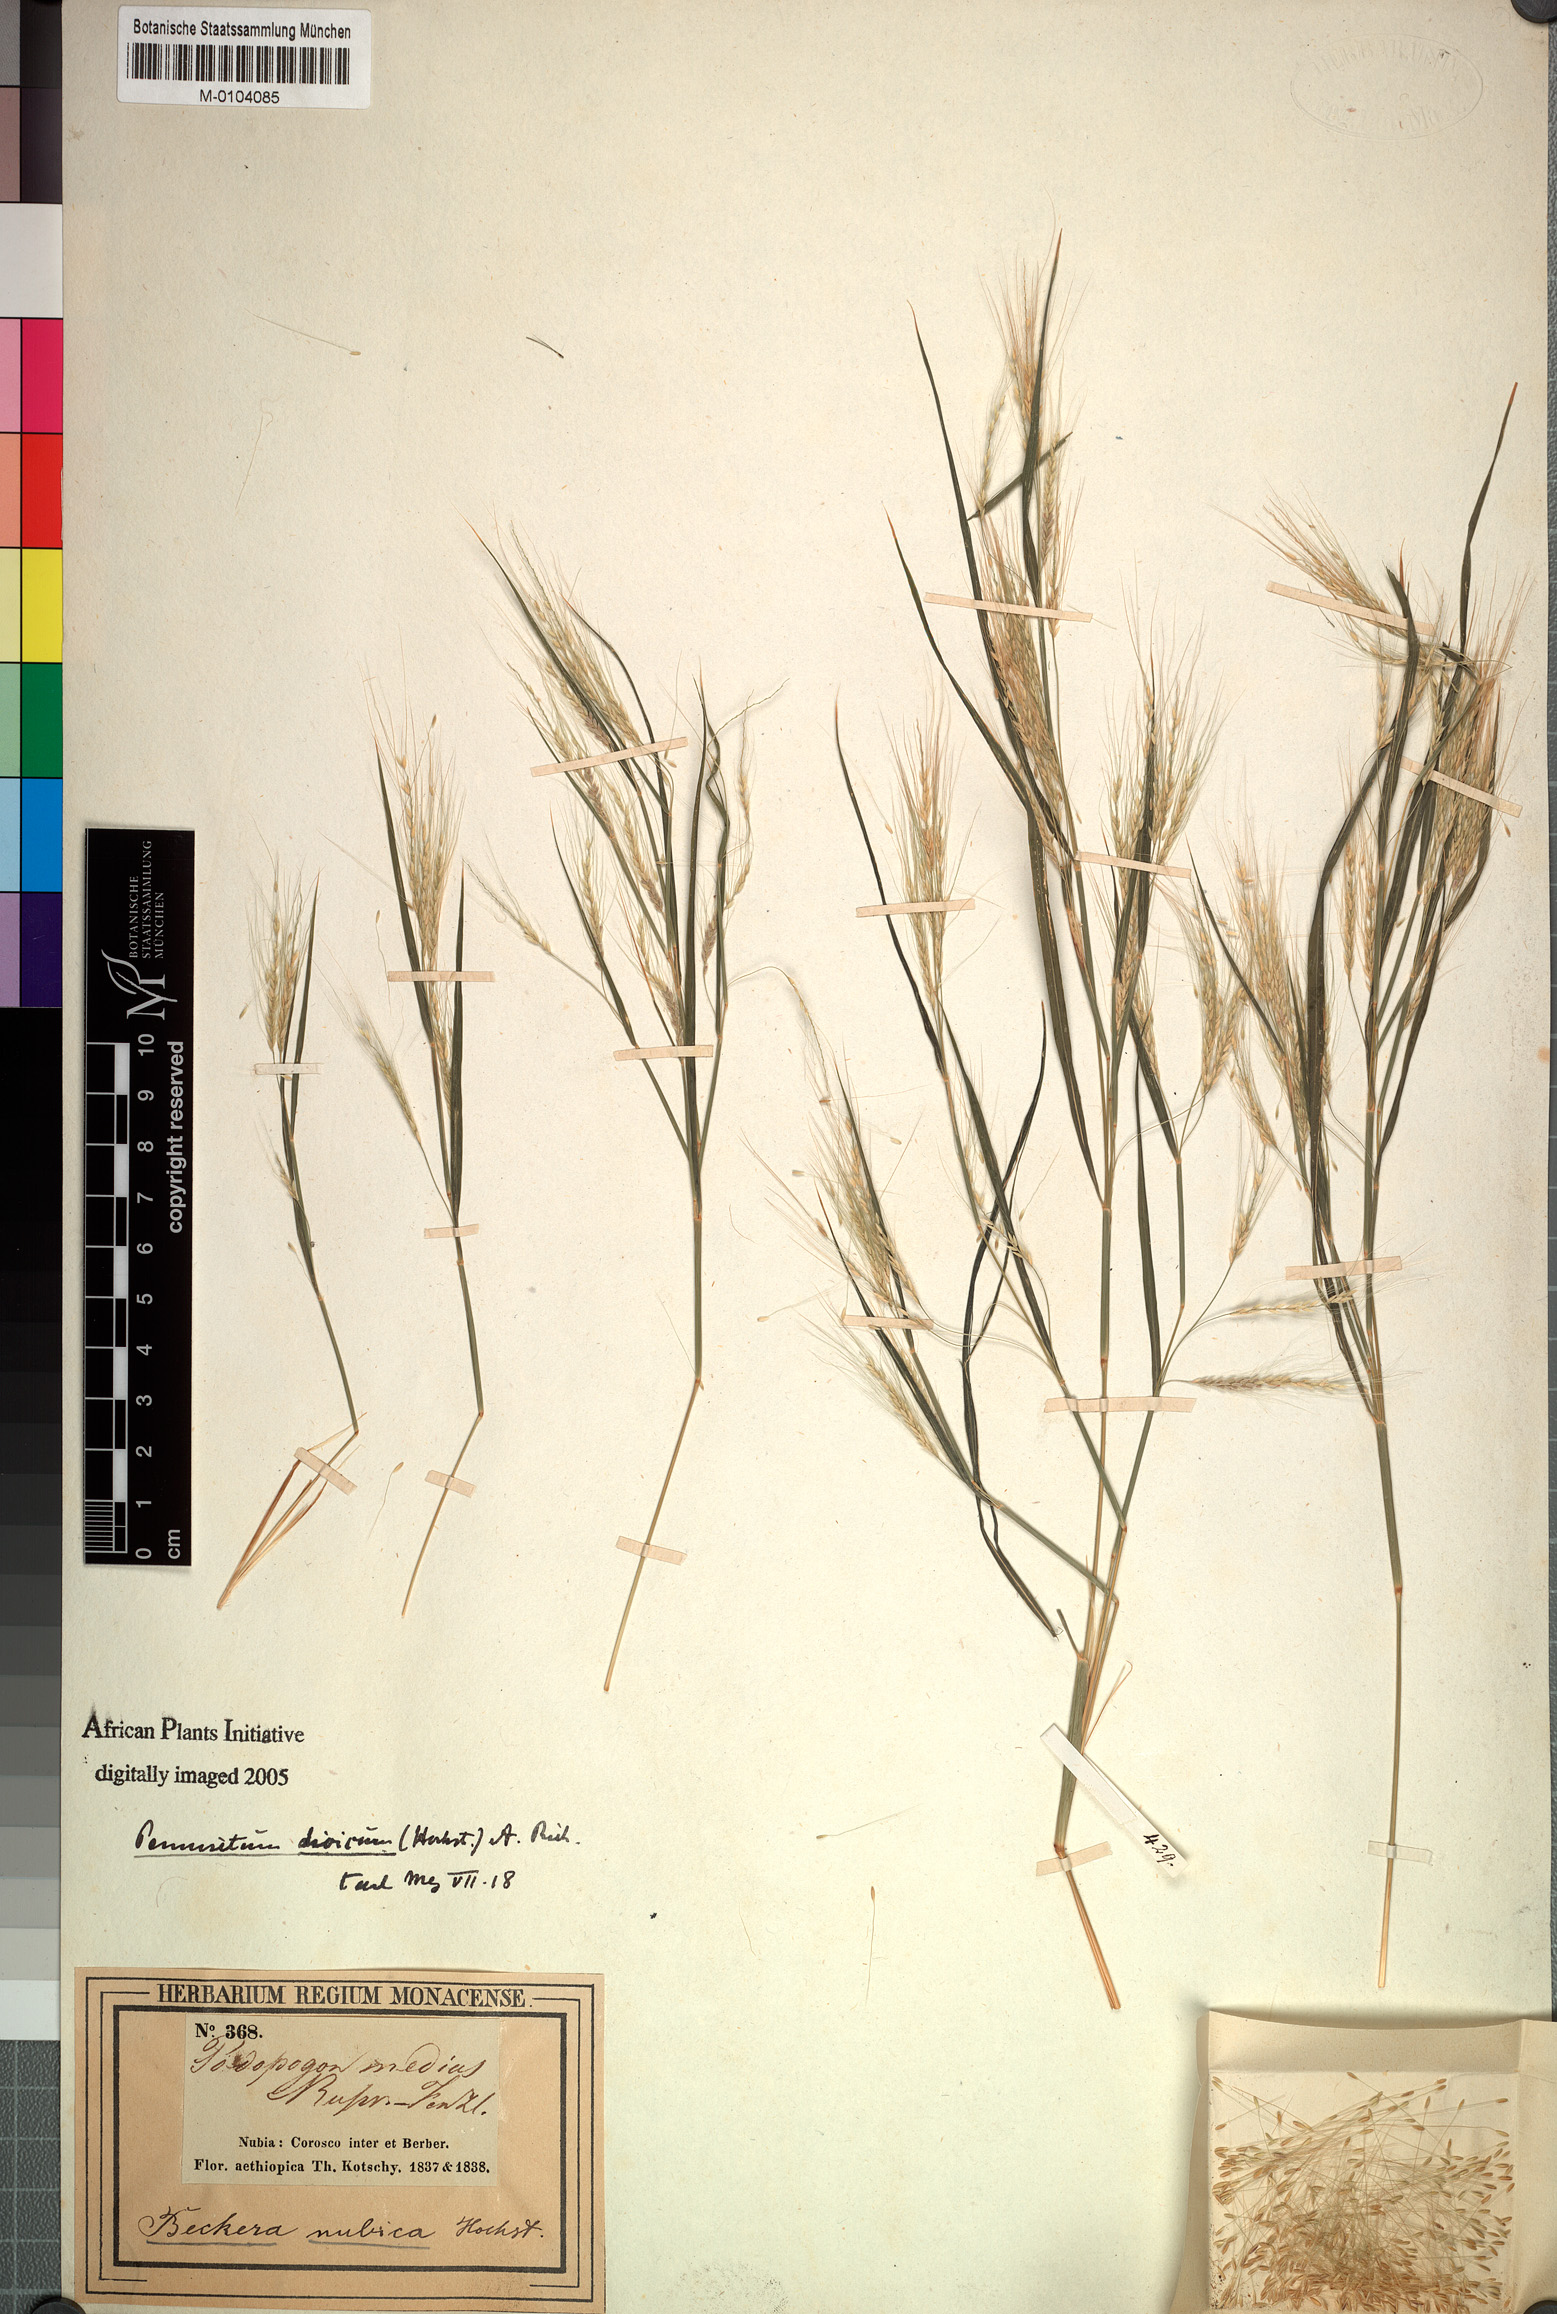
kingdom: Plantae
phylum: Tracheophyta
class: Liliopsida
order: Poales
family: Poaceae
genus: Cenchrus
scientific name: Cenchrus nubicus
